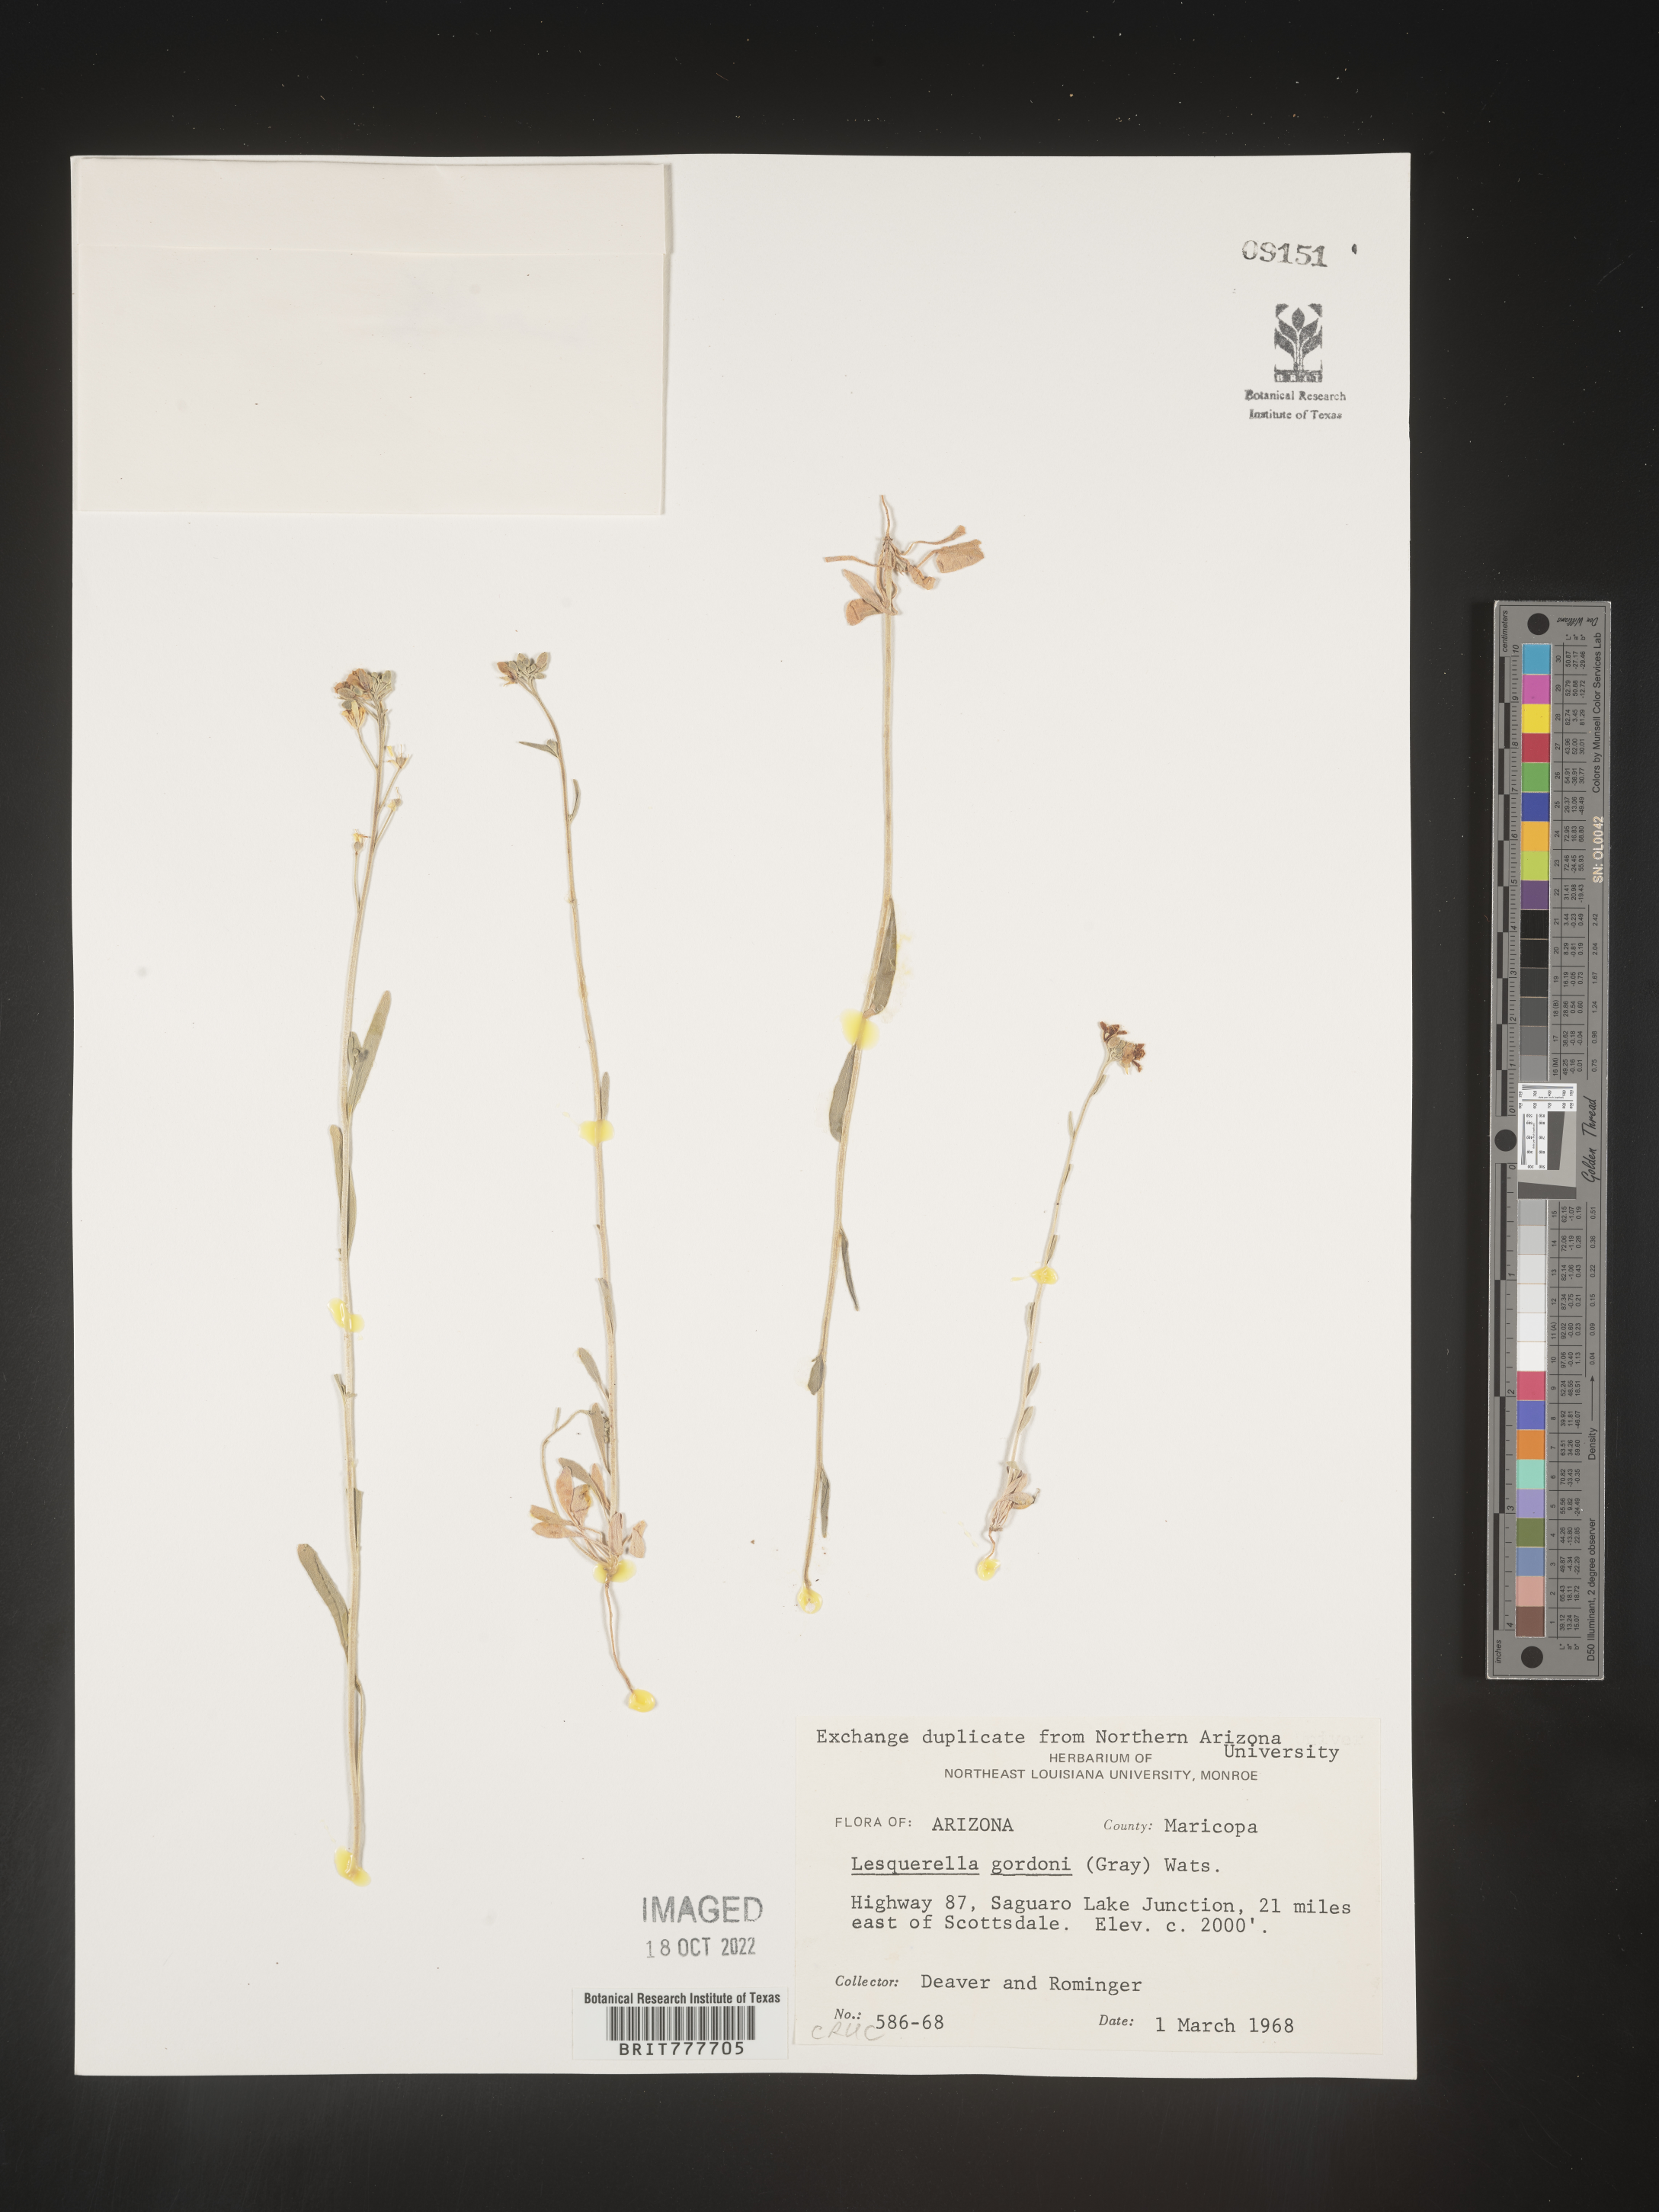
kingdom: Chromista
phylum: Cercozoa
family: Psammonobiotidae
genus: Lesquerella
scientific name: Lesquerella
